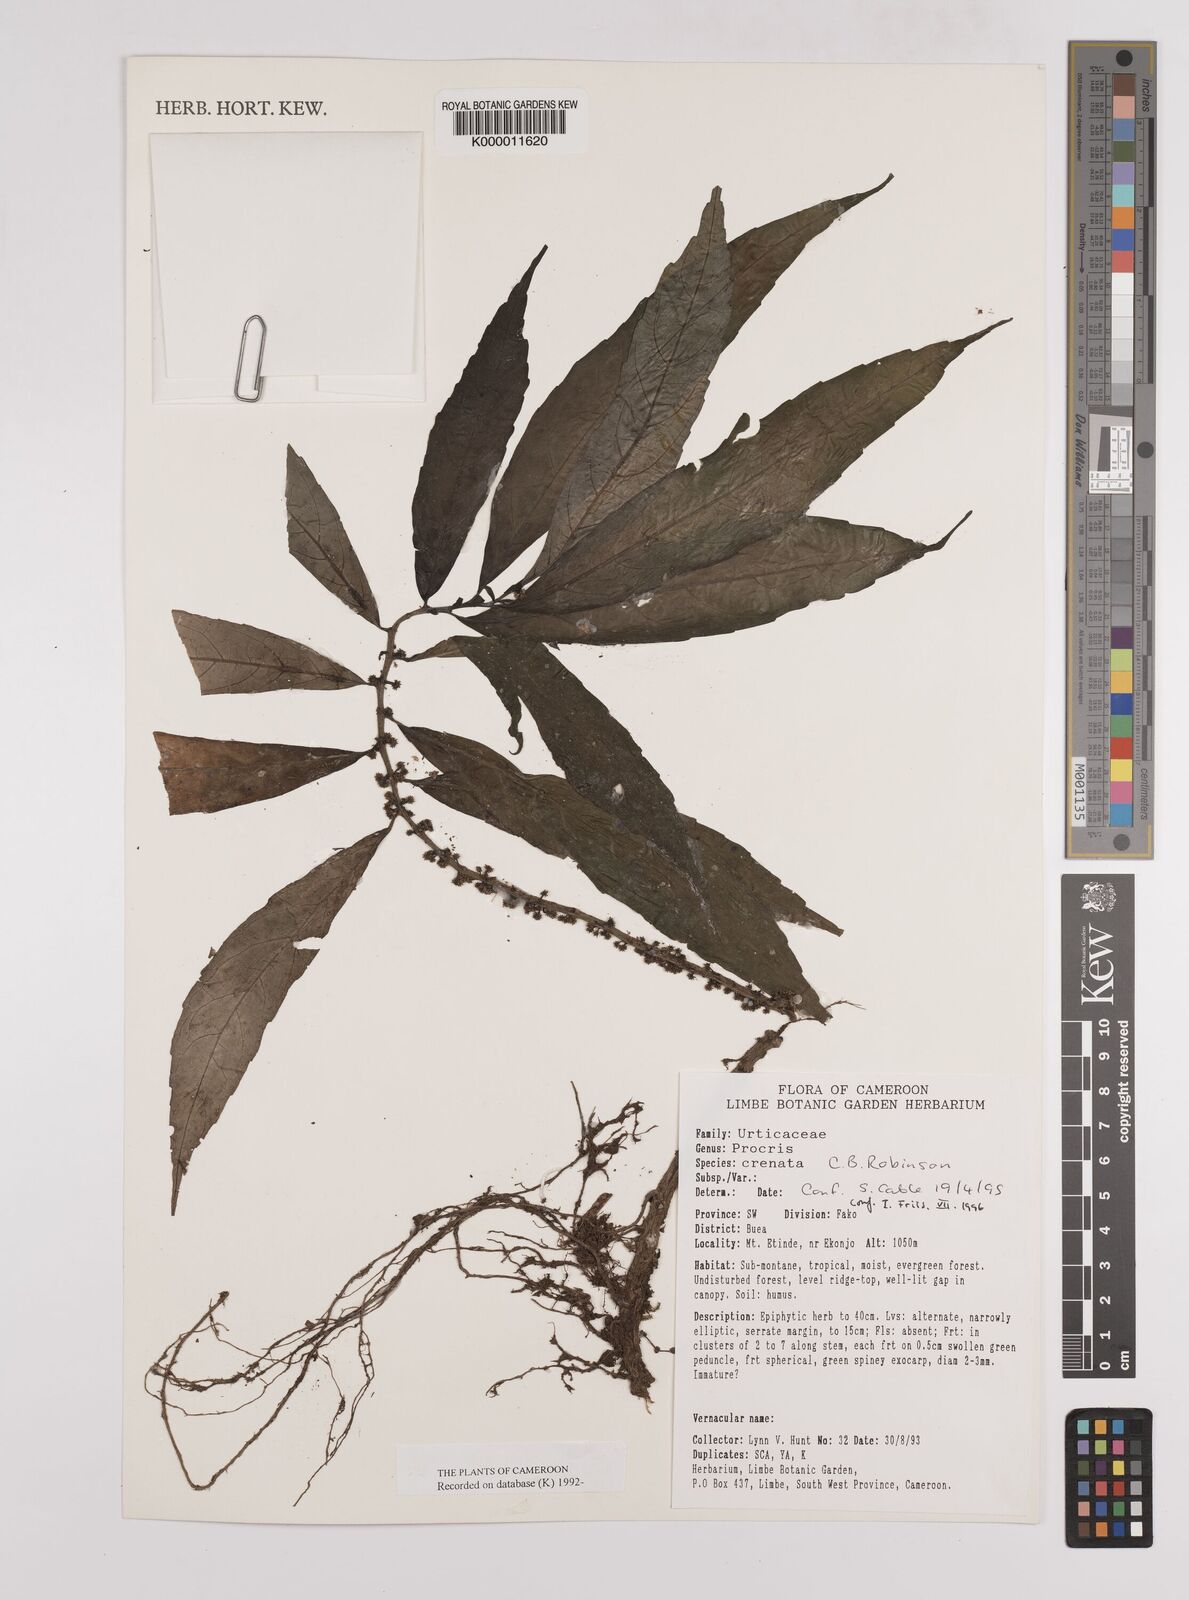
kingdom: Plantae
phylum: Tracheophyta
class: Magnoliopsida
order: Rosales
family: Urticaceae
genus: Procris
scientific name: Procris crenata
